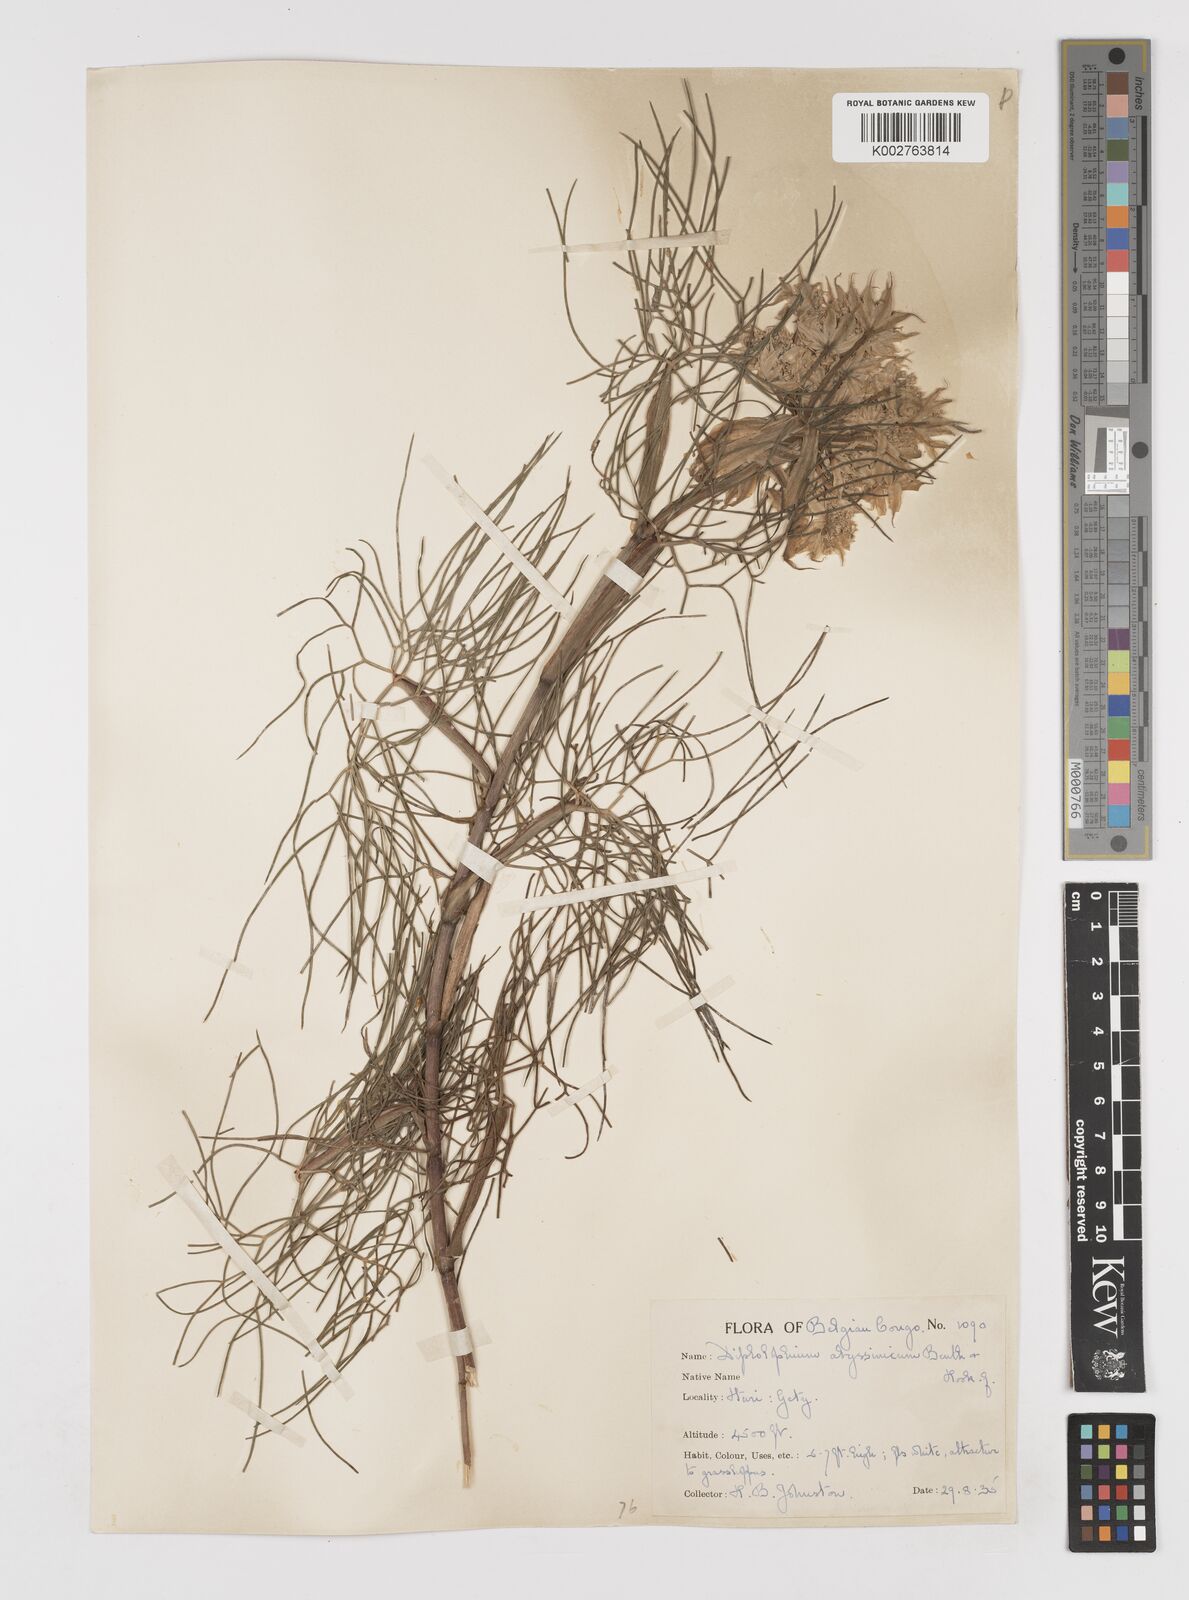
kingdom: Plantae
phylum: Tracheophyta
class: Magnoliopsida
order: Apiales
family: Apiaceae
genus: Diplolophium
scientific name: Diplolophium africanum
